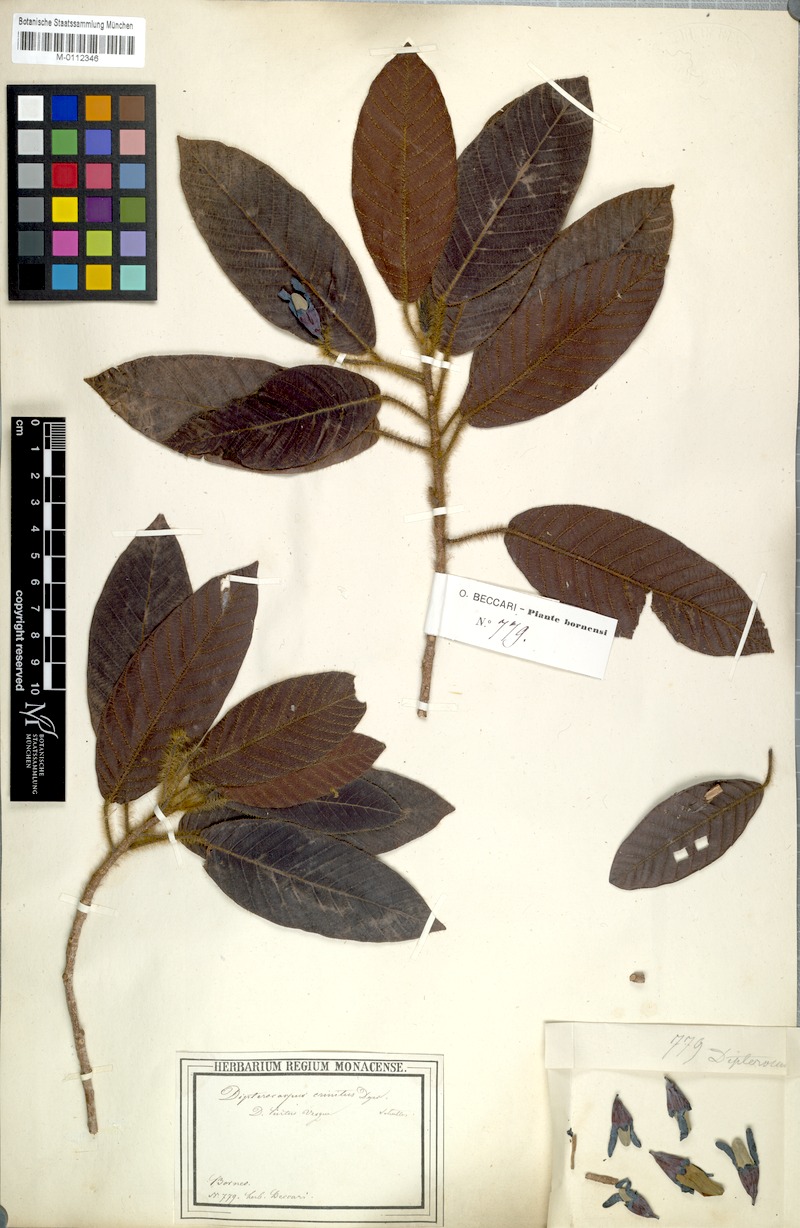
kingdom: Plantae
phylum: Tracheophyta
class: Magnoliopsida
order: Malvales
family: Dipterocarpaceae
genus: Dipterocarpus
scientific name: Dipterocarpus crinitus
